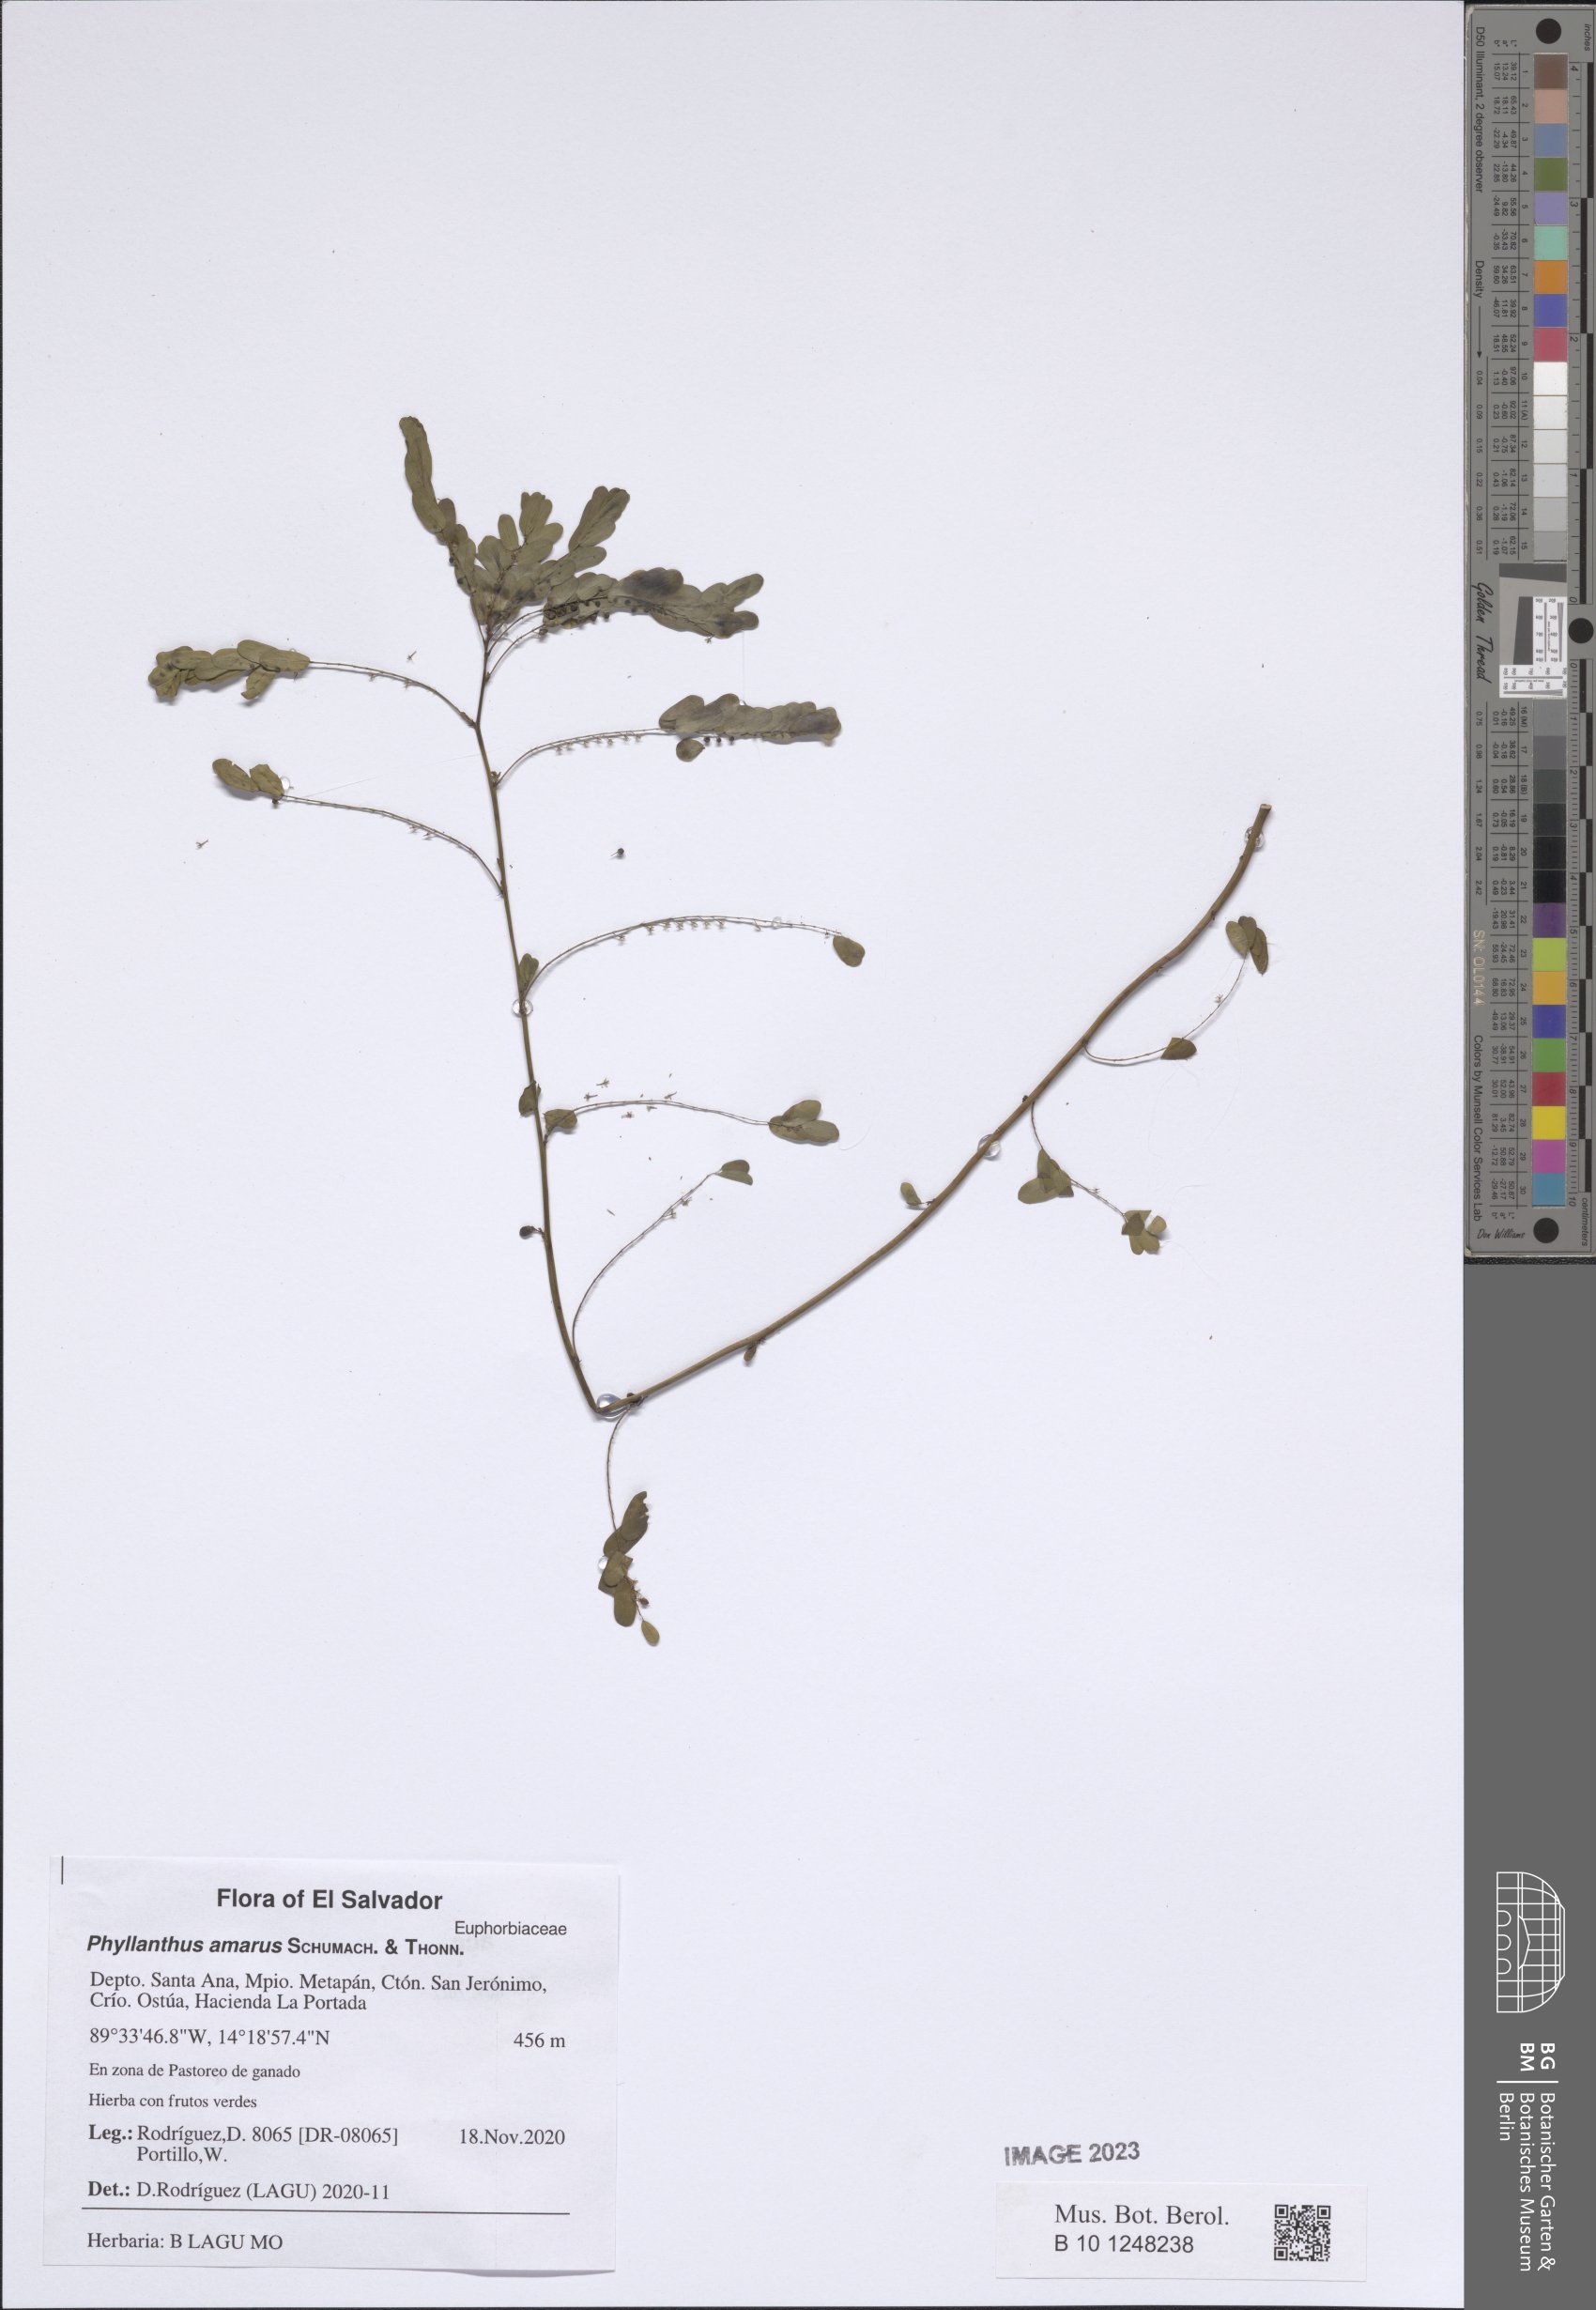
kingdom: Plantae
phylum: Tracheophyta
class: Magnoliopsida
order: Malpighiales
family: Phyllanthaceae
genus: Phyllanthus
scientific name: Phyllanthus amarus
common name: Carry me seed
